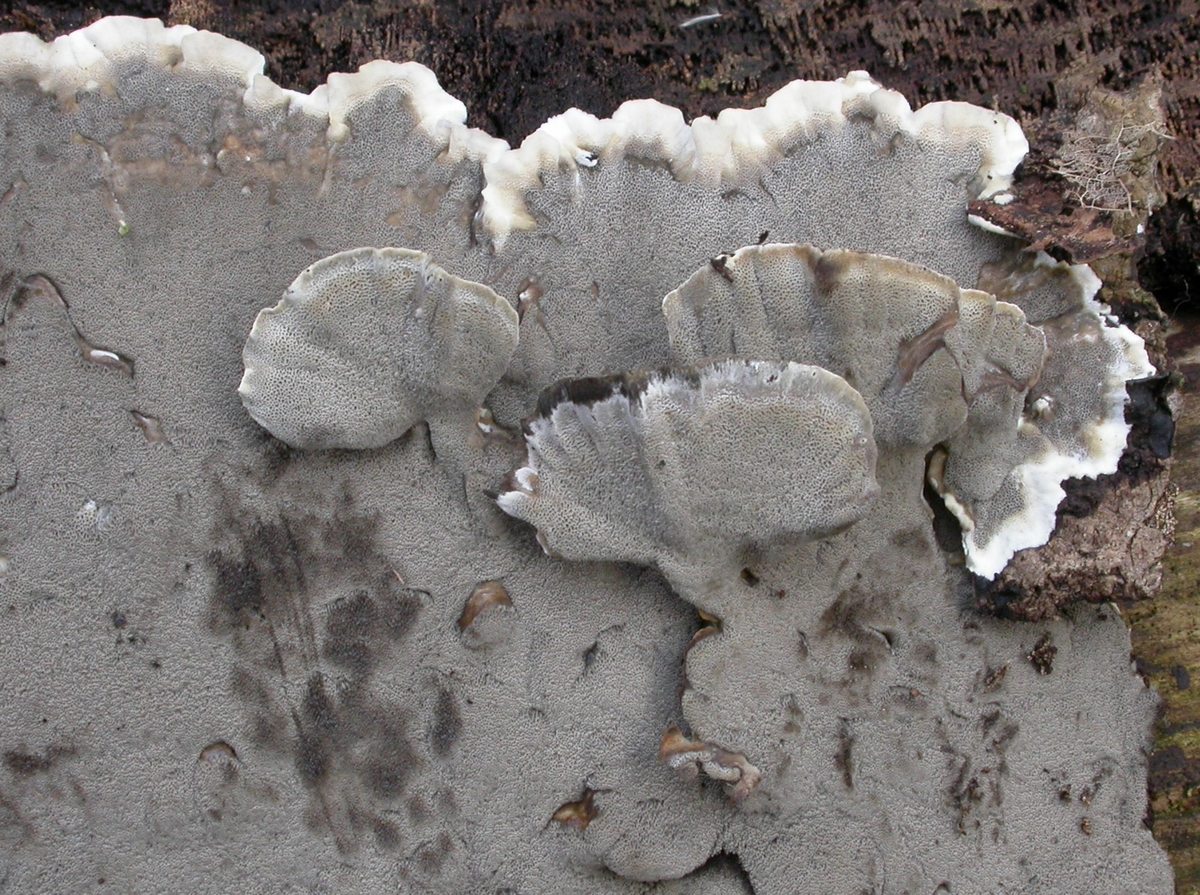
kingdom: Fungi
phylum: Basidiomycota
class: Agaricomycetes
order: Polyporales
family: Phanerochaetaceae
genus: Bjerkandera
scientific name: Bjerkandera adusta
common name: sveden sodporesvamp
